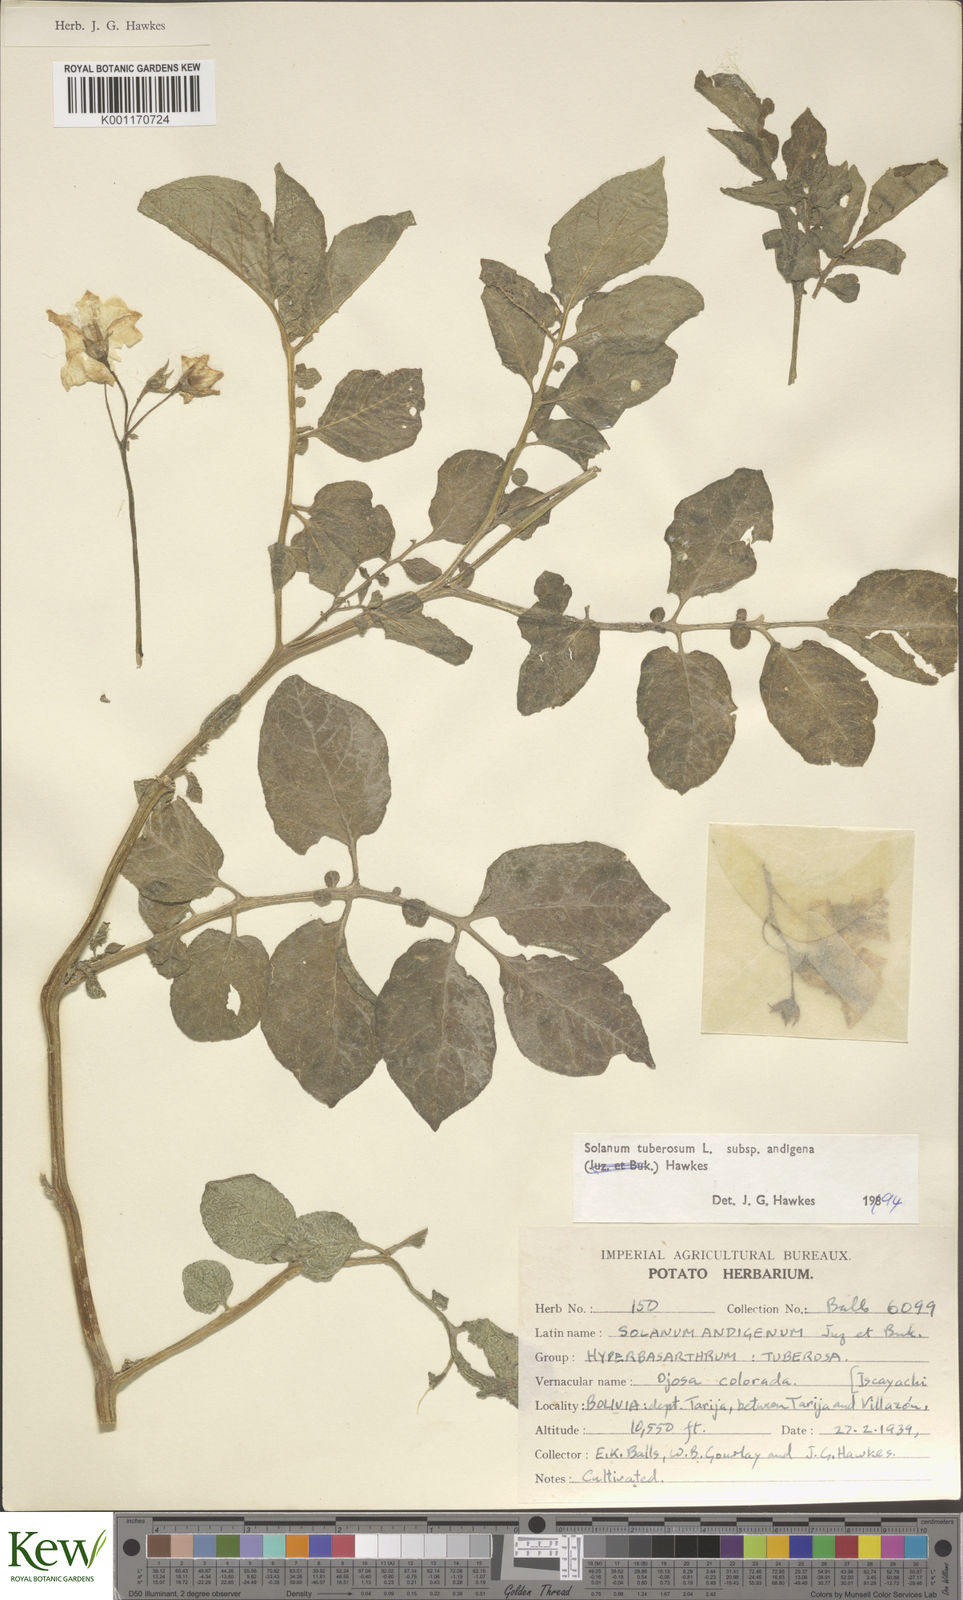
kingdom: Plantae
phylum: Tracheophyta
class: Magnoliopsida
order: Solanales
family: Solanaceae
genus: Solanum
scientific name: Solanum tuberosum
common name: Potato
